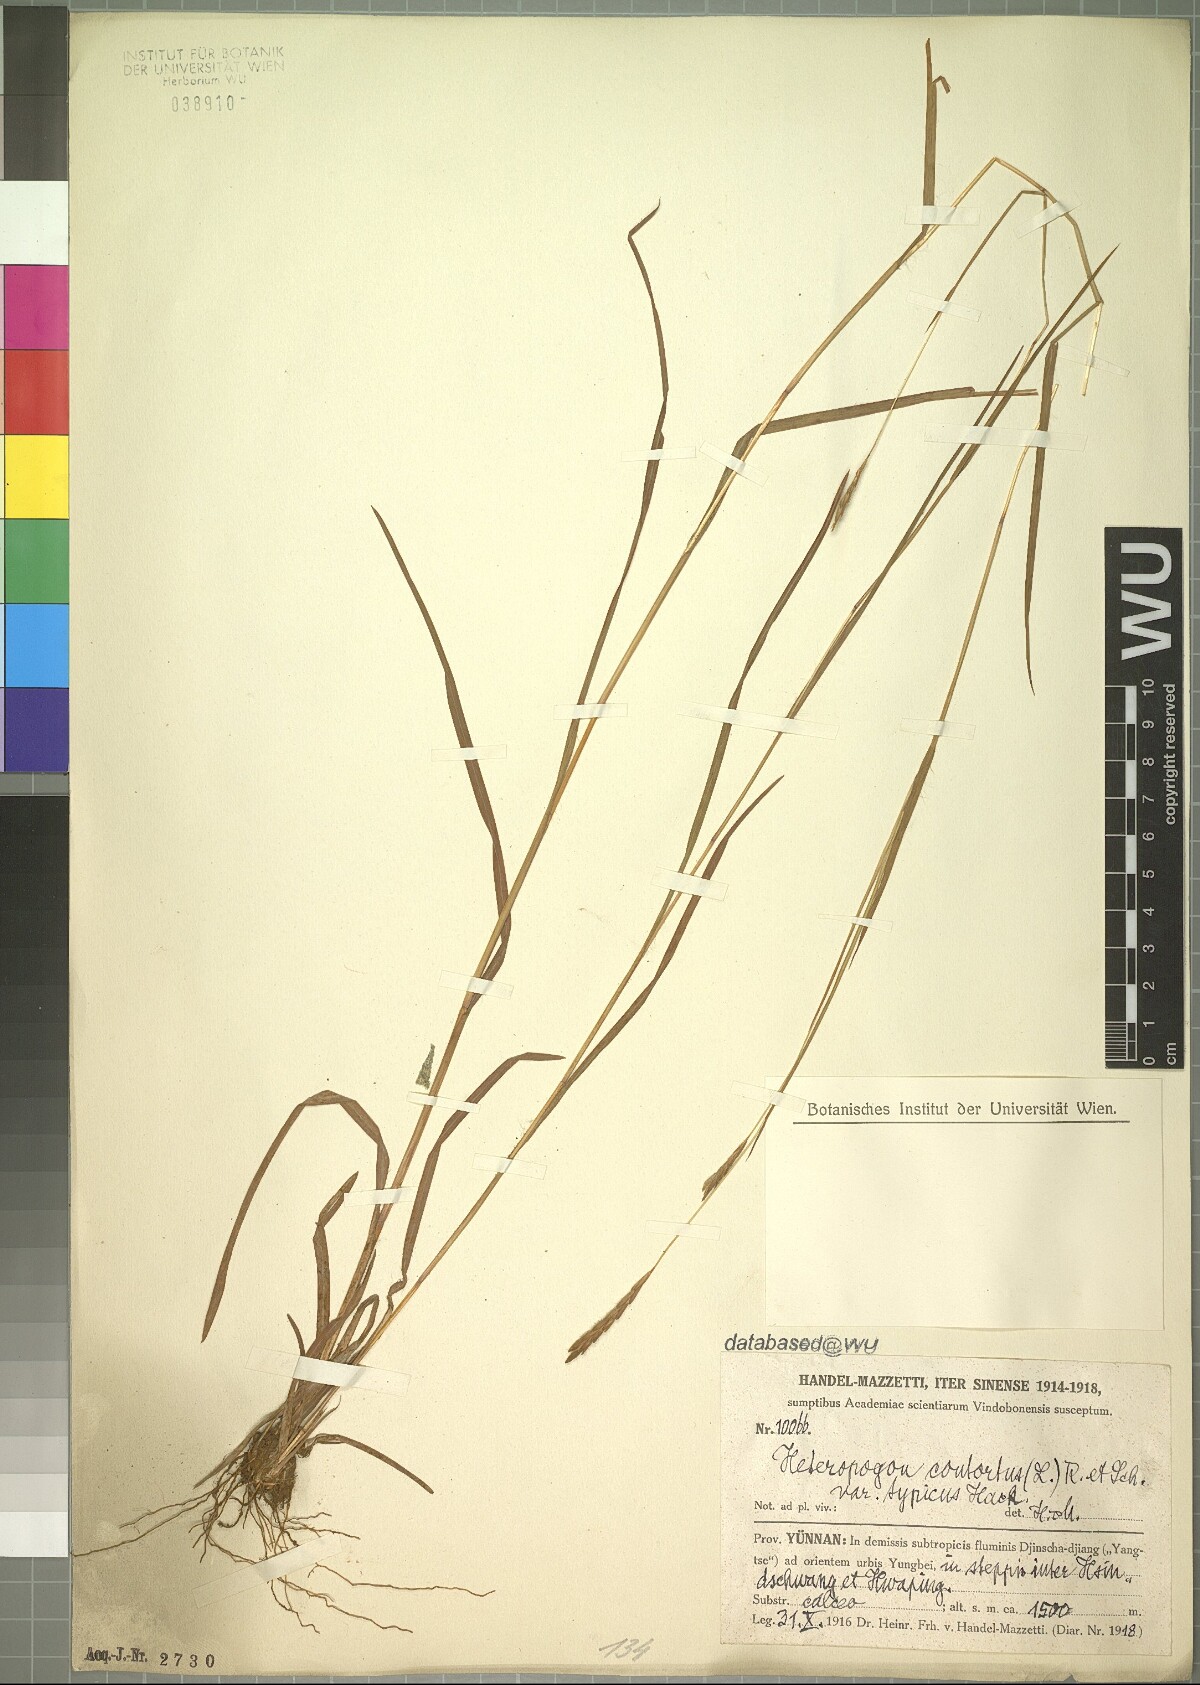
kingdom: Plantae
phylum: Tracheophyta
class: Liliopsida
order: Poales
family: Poaceae
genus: Heteropogon
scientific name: Heteropogon contortus
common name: Tanglehead
